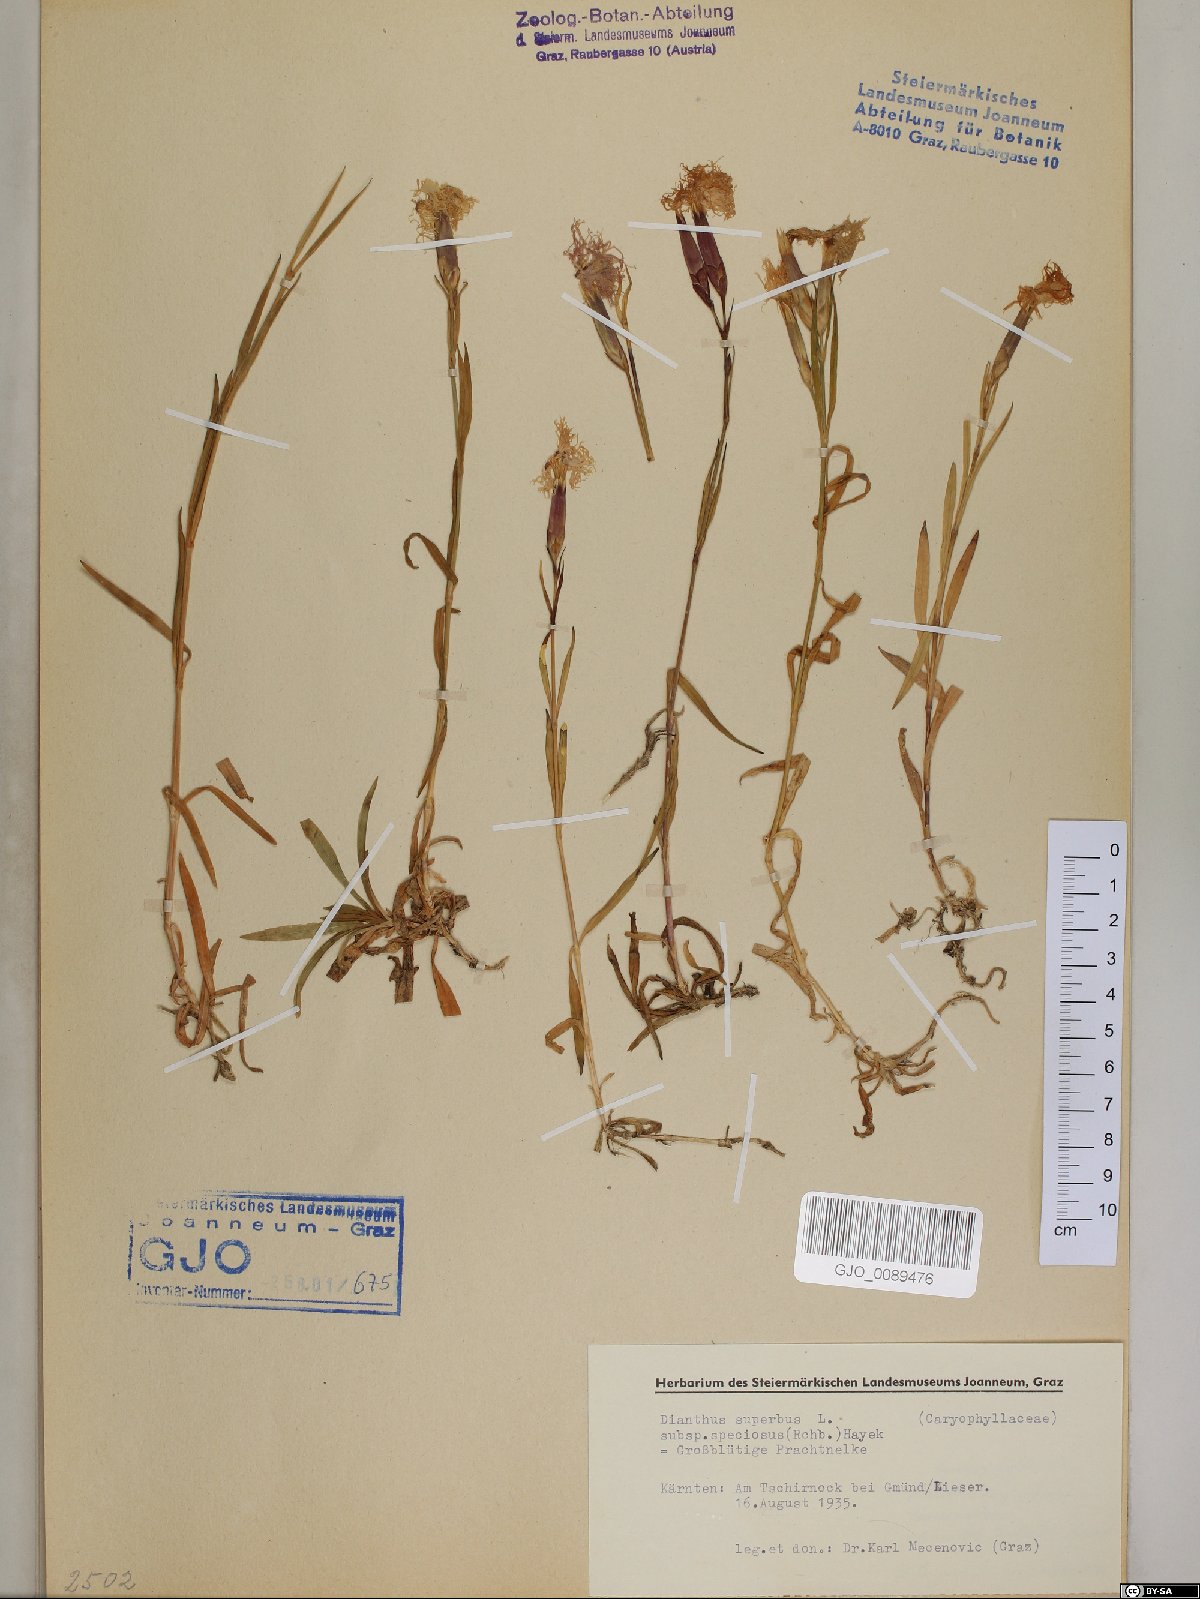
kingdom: Plantae
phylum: Tracheophyta
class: Magnoliopsida
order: Caryophyllales
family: Caryophyllaceae
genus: Dianthus
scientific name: Dianthus superbus
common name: Fringed pink
